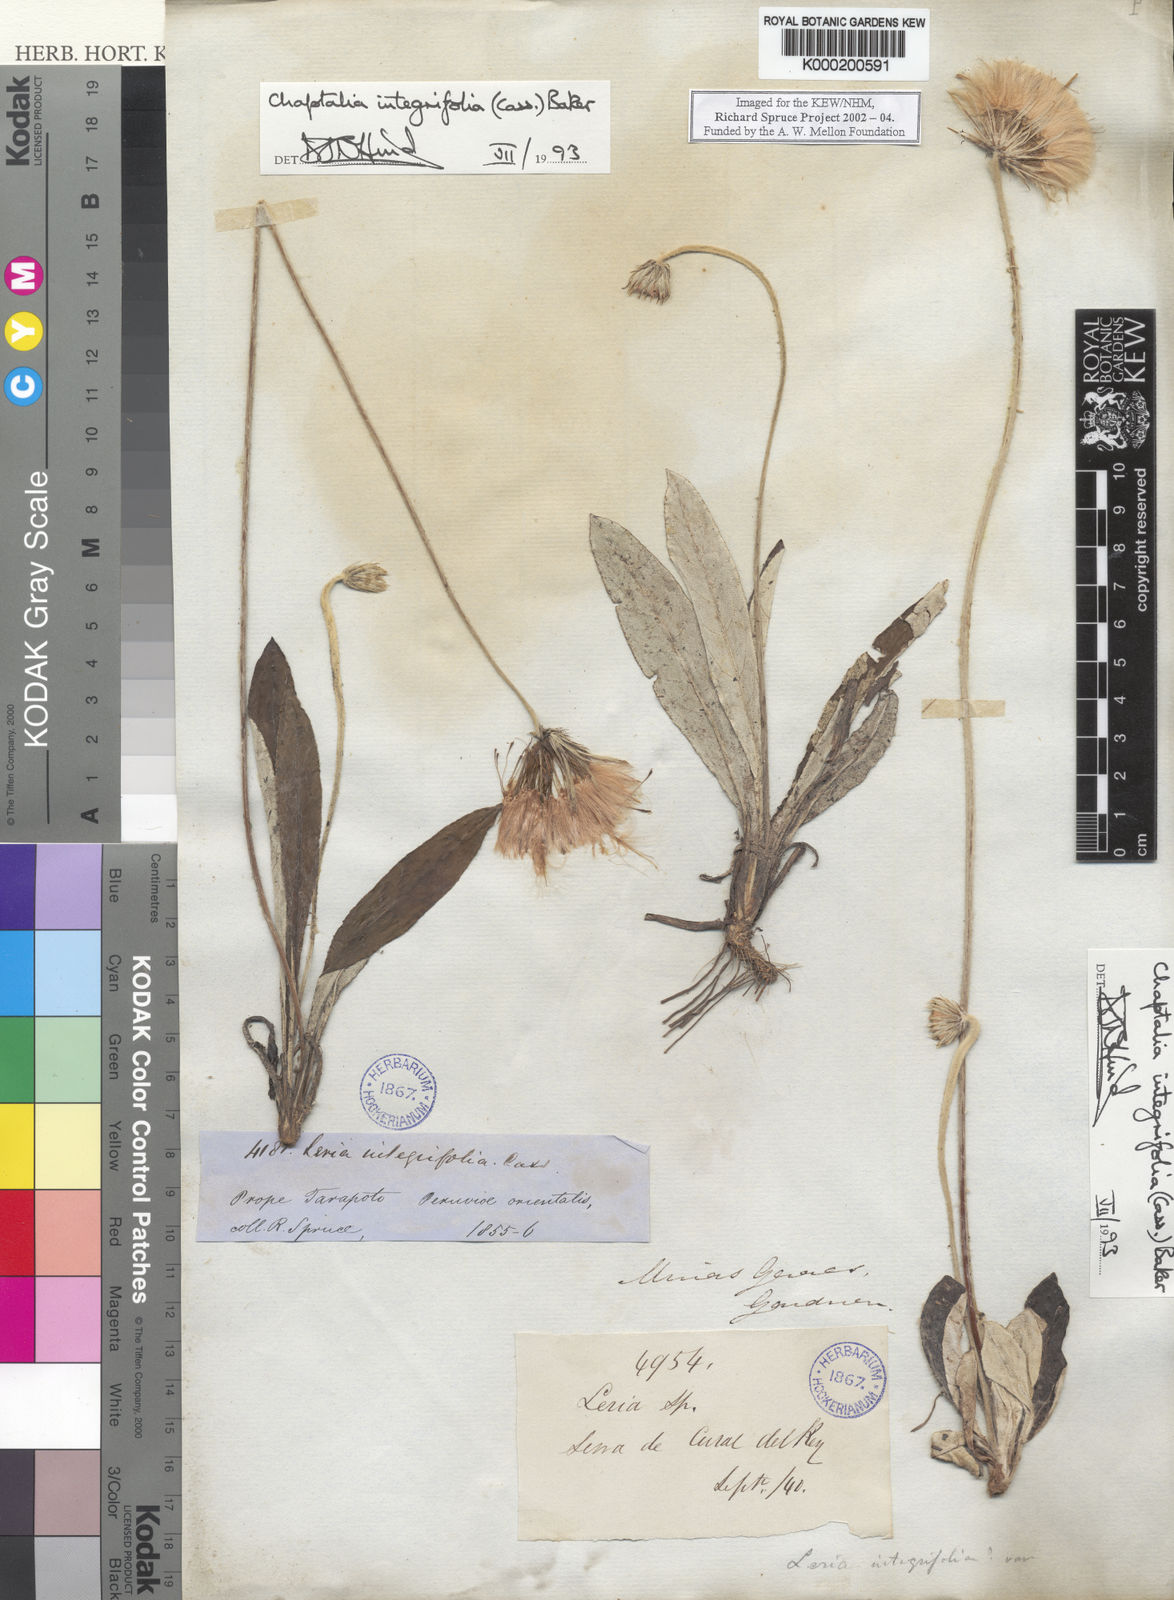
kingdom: Plantae
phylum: Tracheophyta
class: Magnoliopsida
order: Asterales
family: Asteraceae
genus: Chaptalia
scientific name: Chaptalia integerrima
